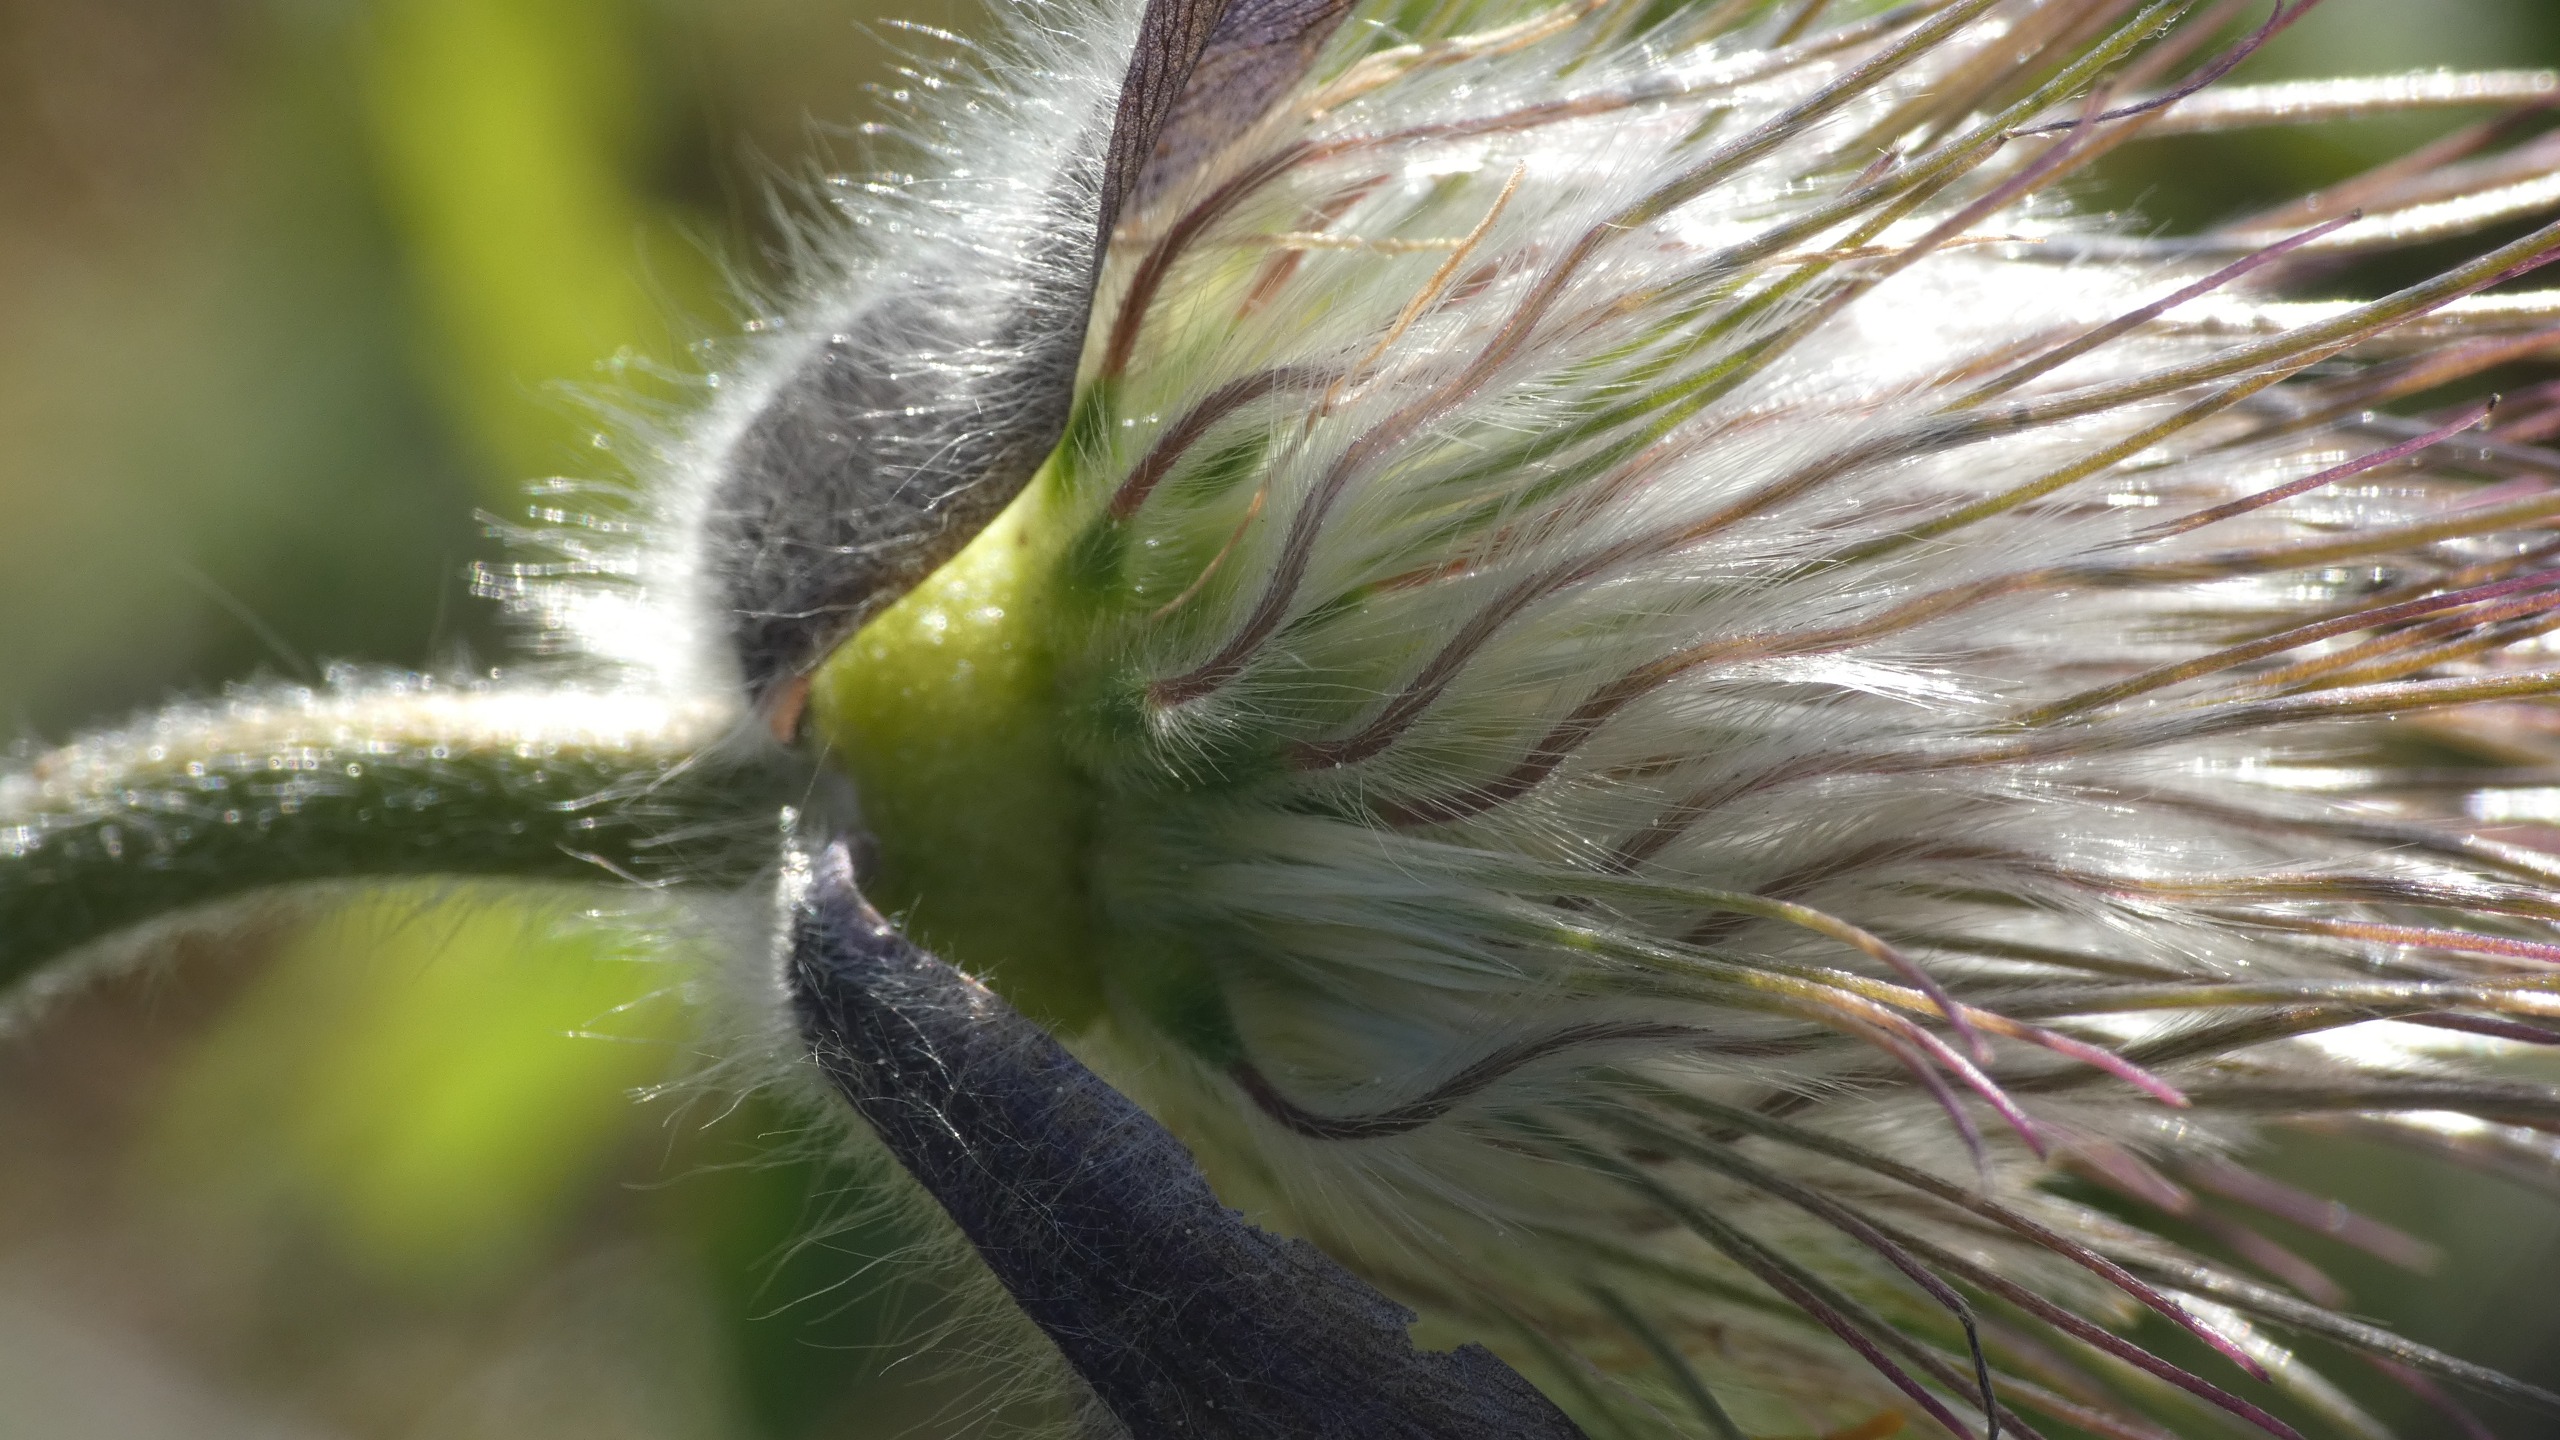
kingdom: Plantae
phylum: Tracheophyta
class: Magnoliopsida
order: Ranunculales
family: Ranunculaceae
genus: Pulsatilla
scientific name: Pulsatilla pratensis
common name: Nikkende kobjælde
